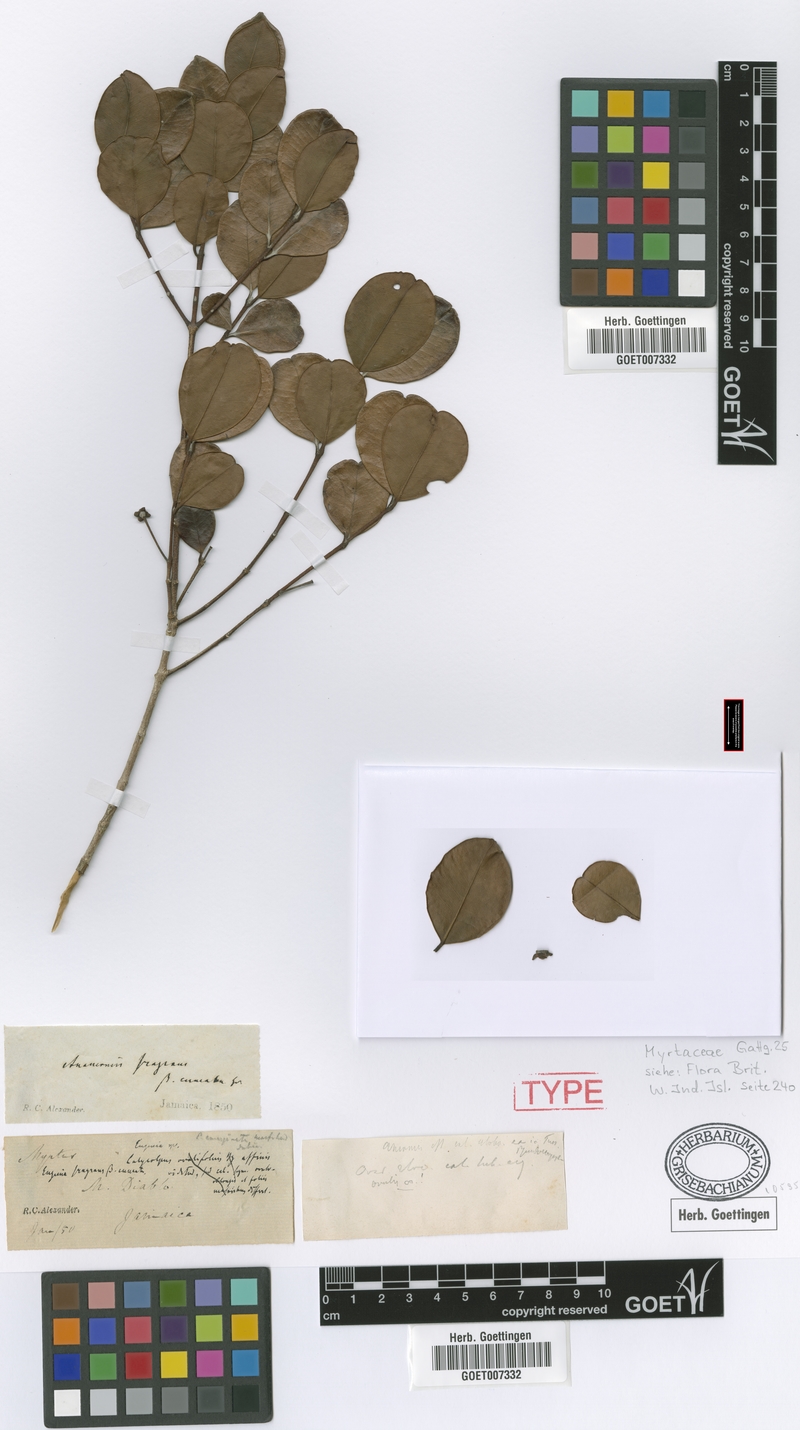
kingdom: Plantae
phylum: Tracheophyta
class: Magnoliopsida
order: Myrtales
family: Myrtaceae
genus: Myrcianthes
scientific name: Myrcianthes fragrans
